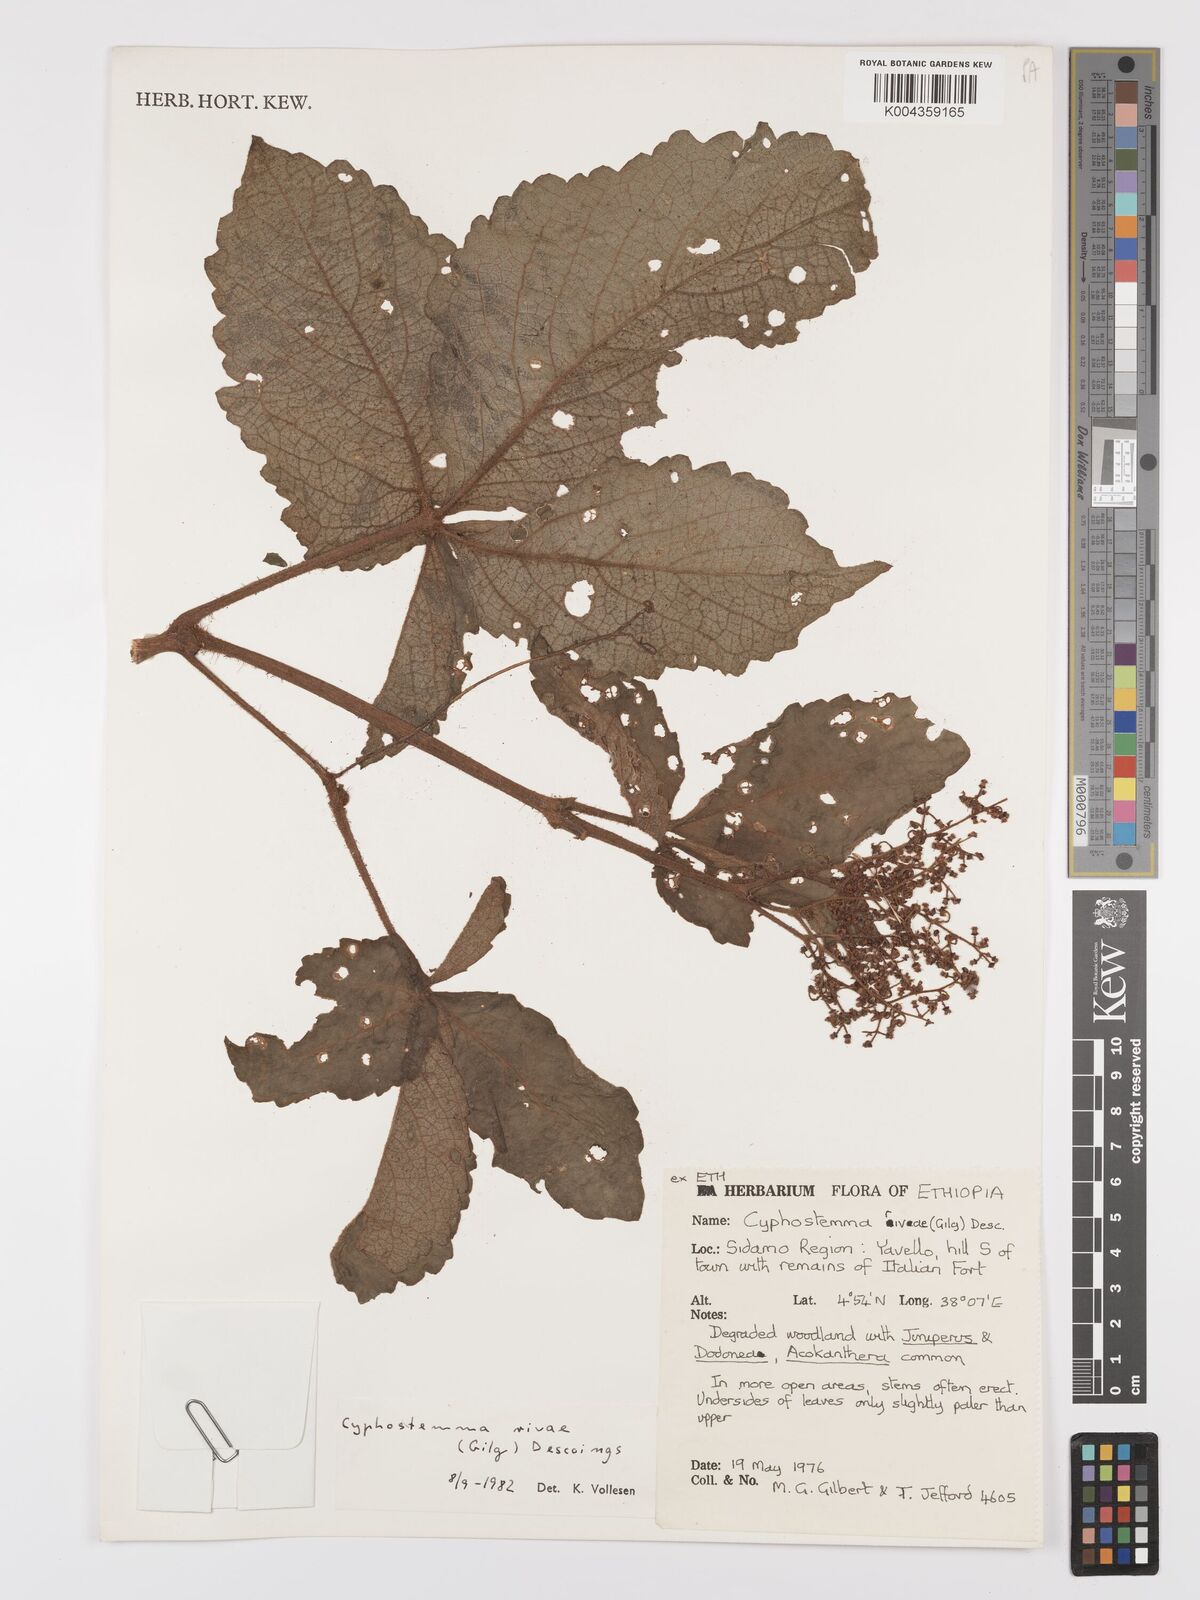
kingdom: Plantae
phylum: Tracheophyta
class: Magnoliopsida
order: Vitales
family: Vitaceae
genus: Cyphostemma
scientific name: Cyphostemma rivae
